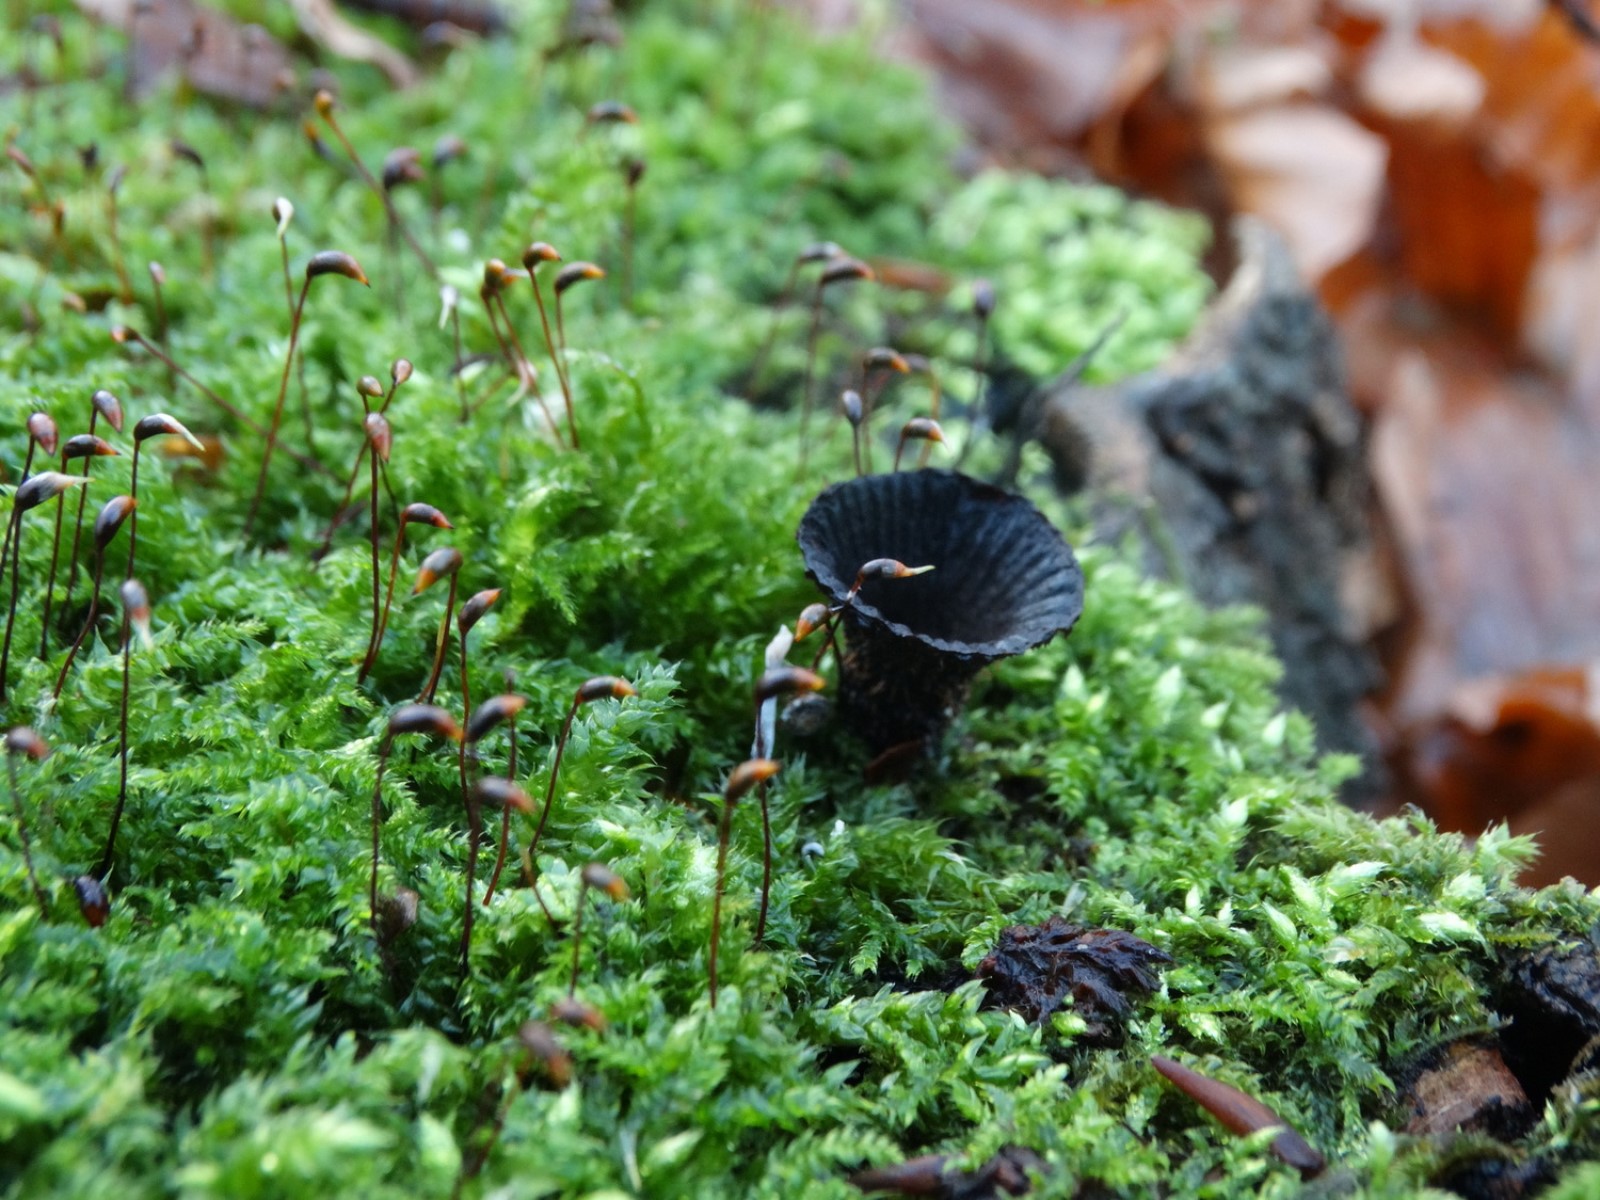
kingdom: Fungi
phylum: Basidiomycota
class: Agaricomycetes
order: Agaricales
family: Agaricaceae
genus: Cyathus
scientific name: Cyathus striatus
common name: stribet redesvamp
